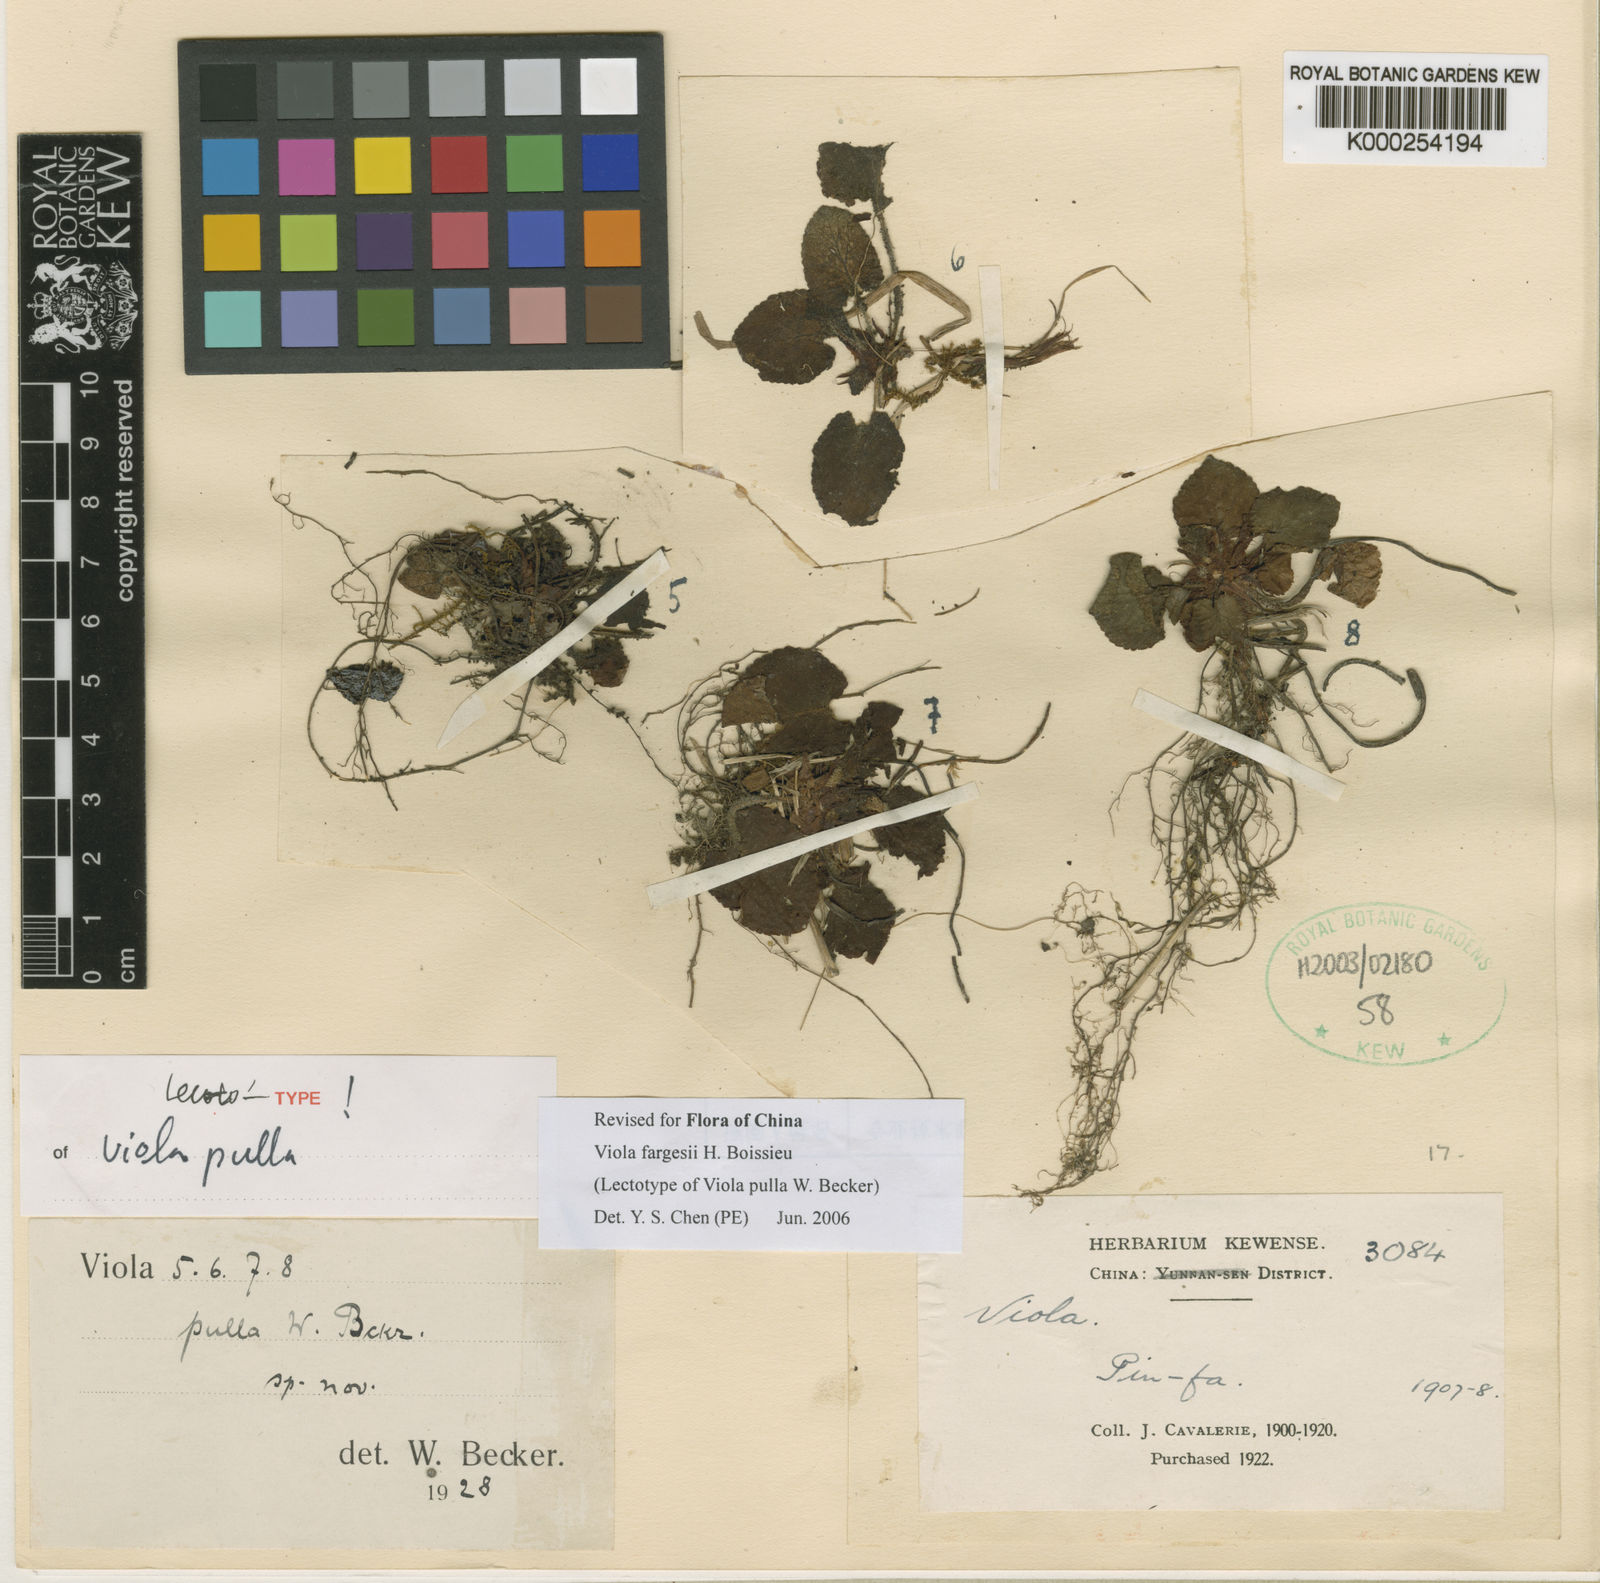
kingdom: Plantae
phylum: Tracheophyta
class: Magnoliopsida
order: Malpighiales
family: Violaceae
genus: Viola
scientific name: Viola fargesii
